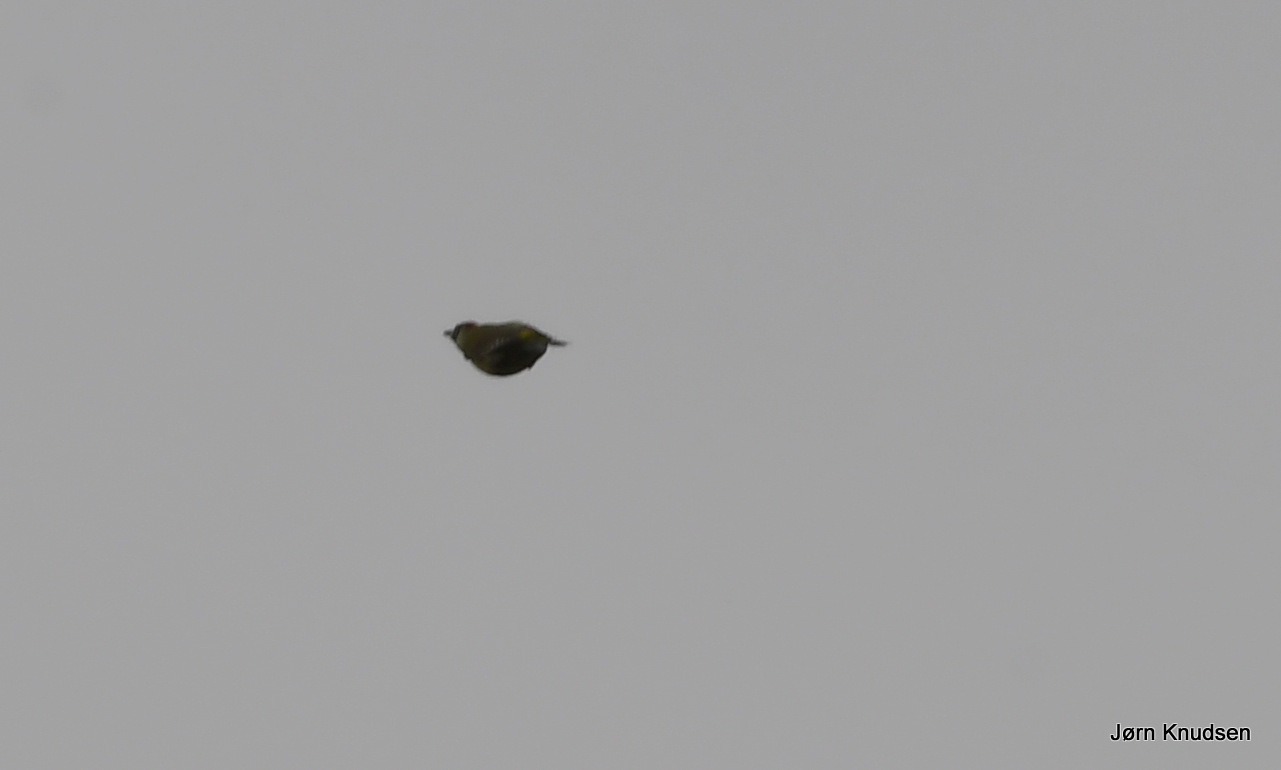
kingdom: Animalia
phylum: Chordata
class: Aves
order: Piciformes
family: Picidae
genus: Picus
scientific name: Picus viridis
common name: Grønspætte
